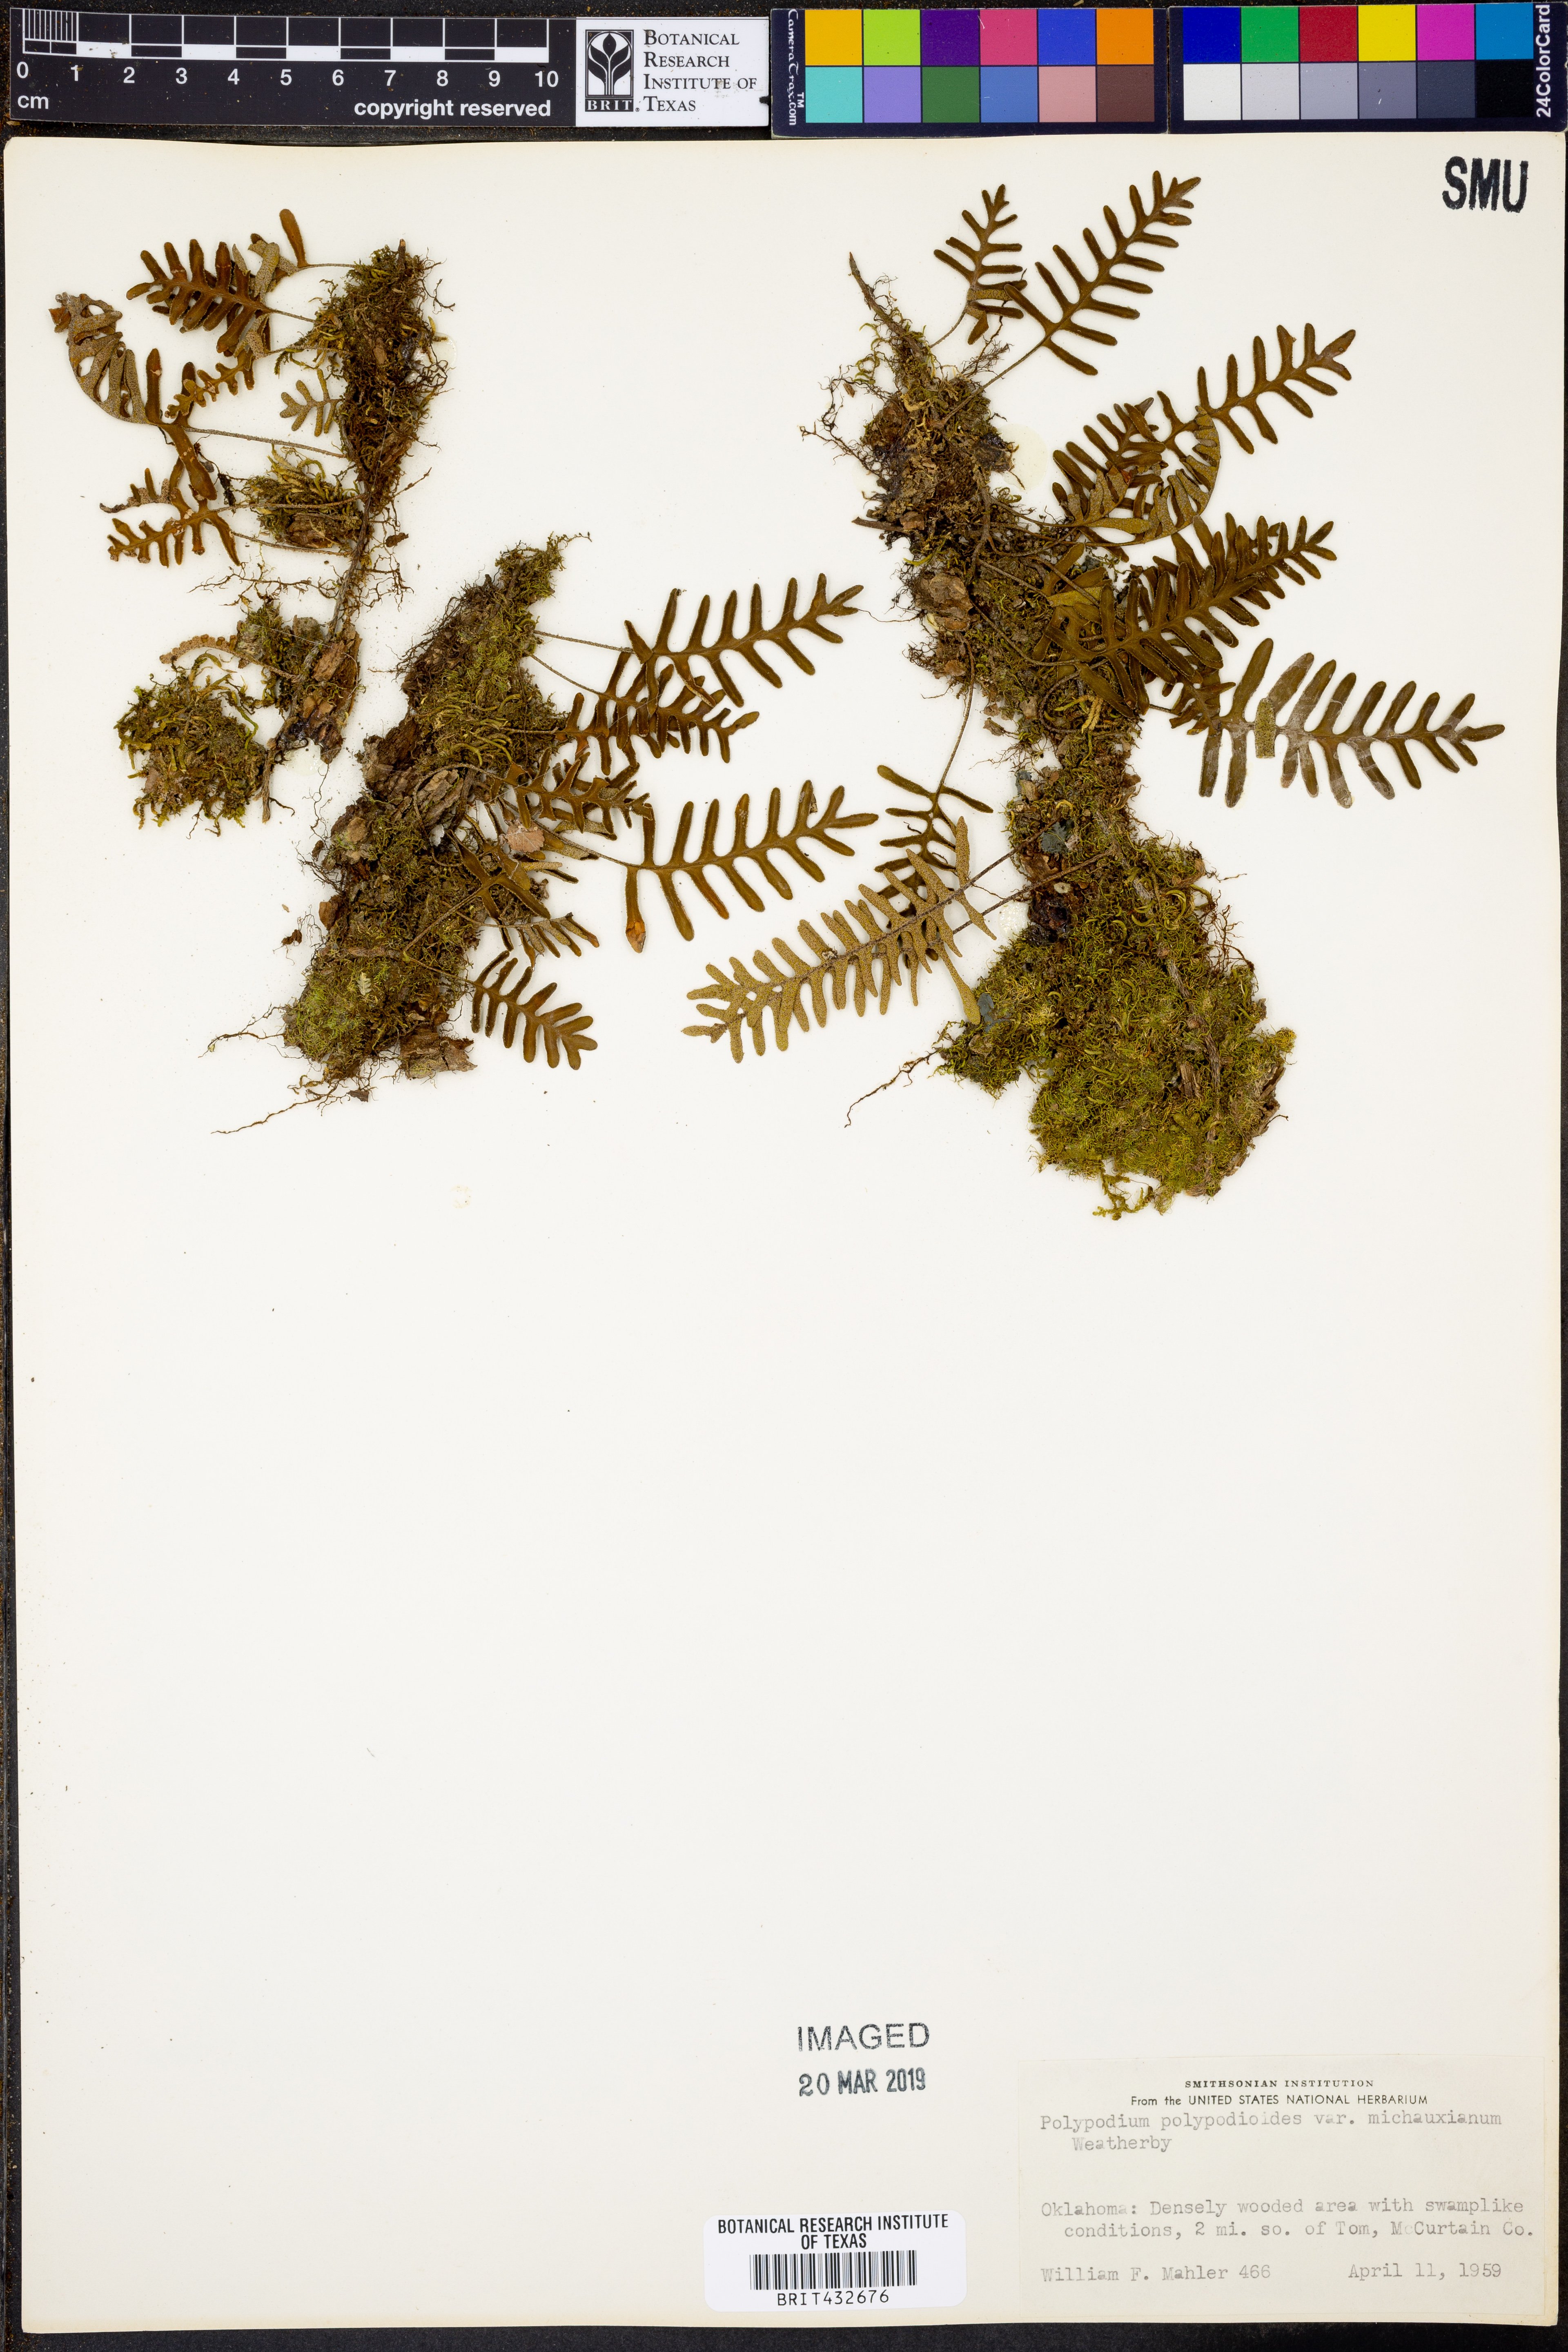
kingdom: Plantae
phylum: Tracheophyta
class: Polypodiopsida
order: Polypodiales
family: Polypodiaceae
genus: Pleopeltis
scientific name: Pleopeltis polypodioides
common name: Resurrection fern
